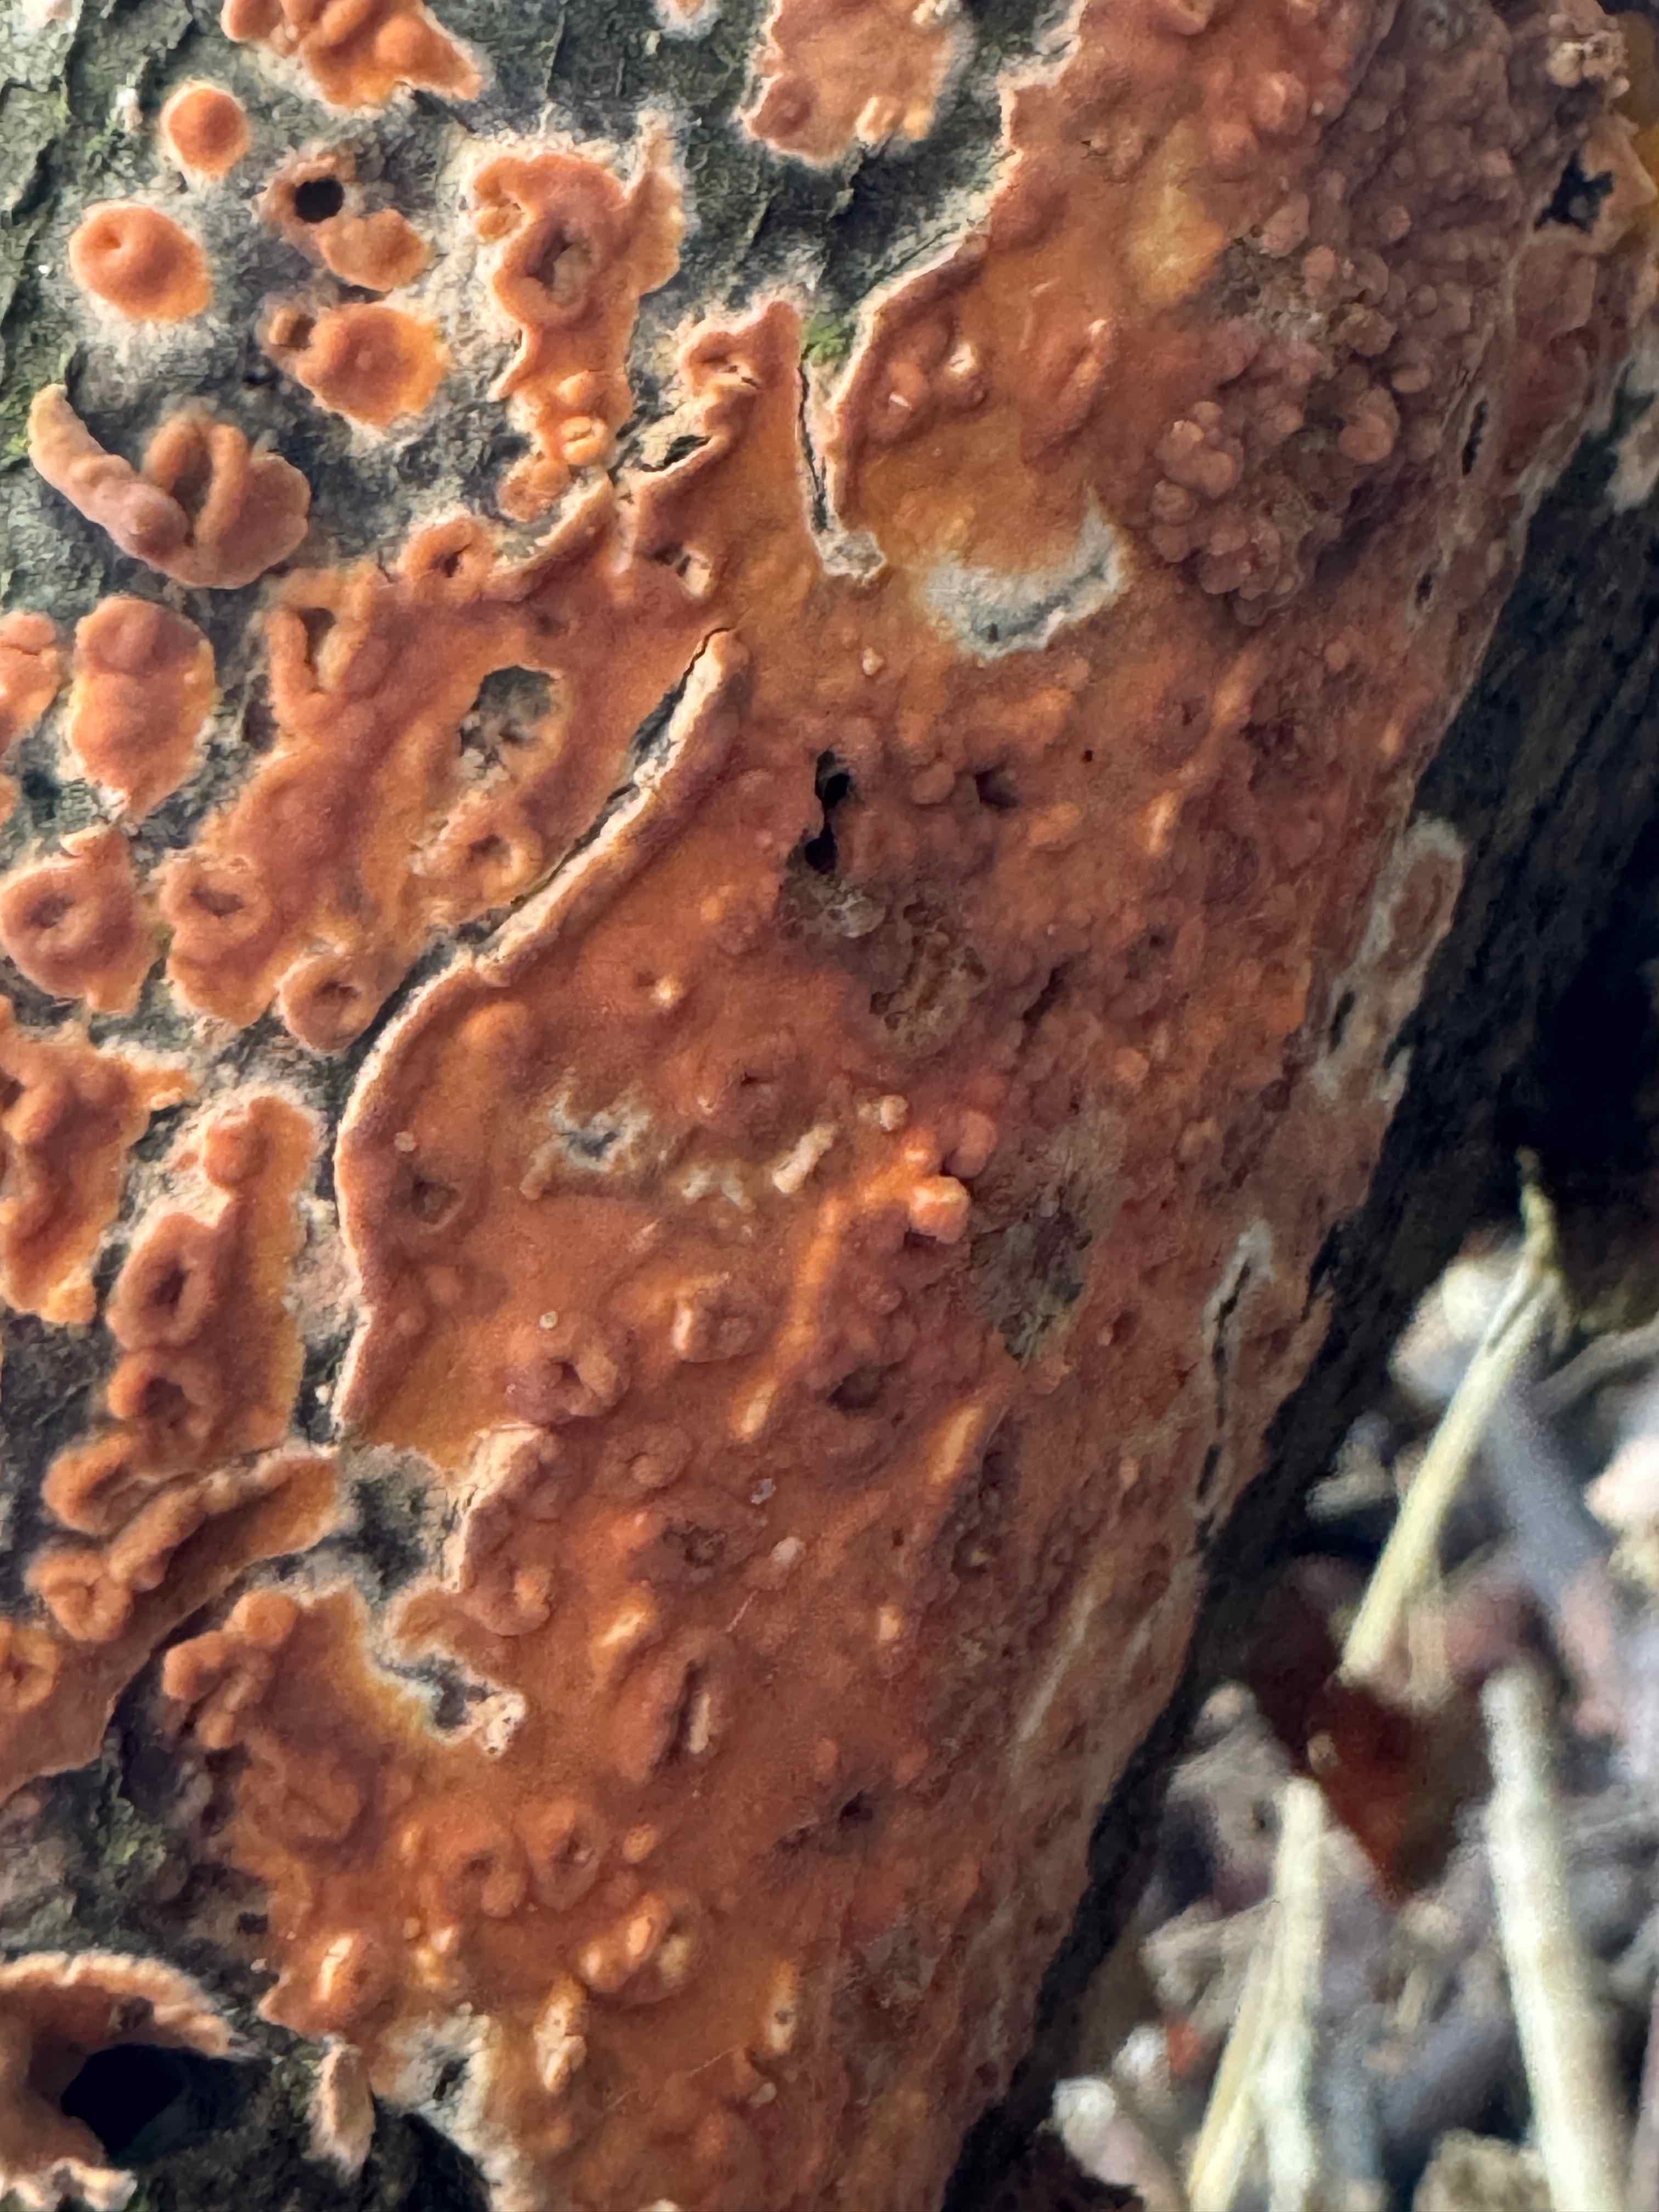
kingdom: Fungi
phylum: Basidiomycota
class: Agaricomycetes
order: Russulales
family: Peniophoraceae
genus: Peniophora
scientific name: Peniophora incarnata
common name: laksefarvet voksskind
